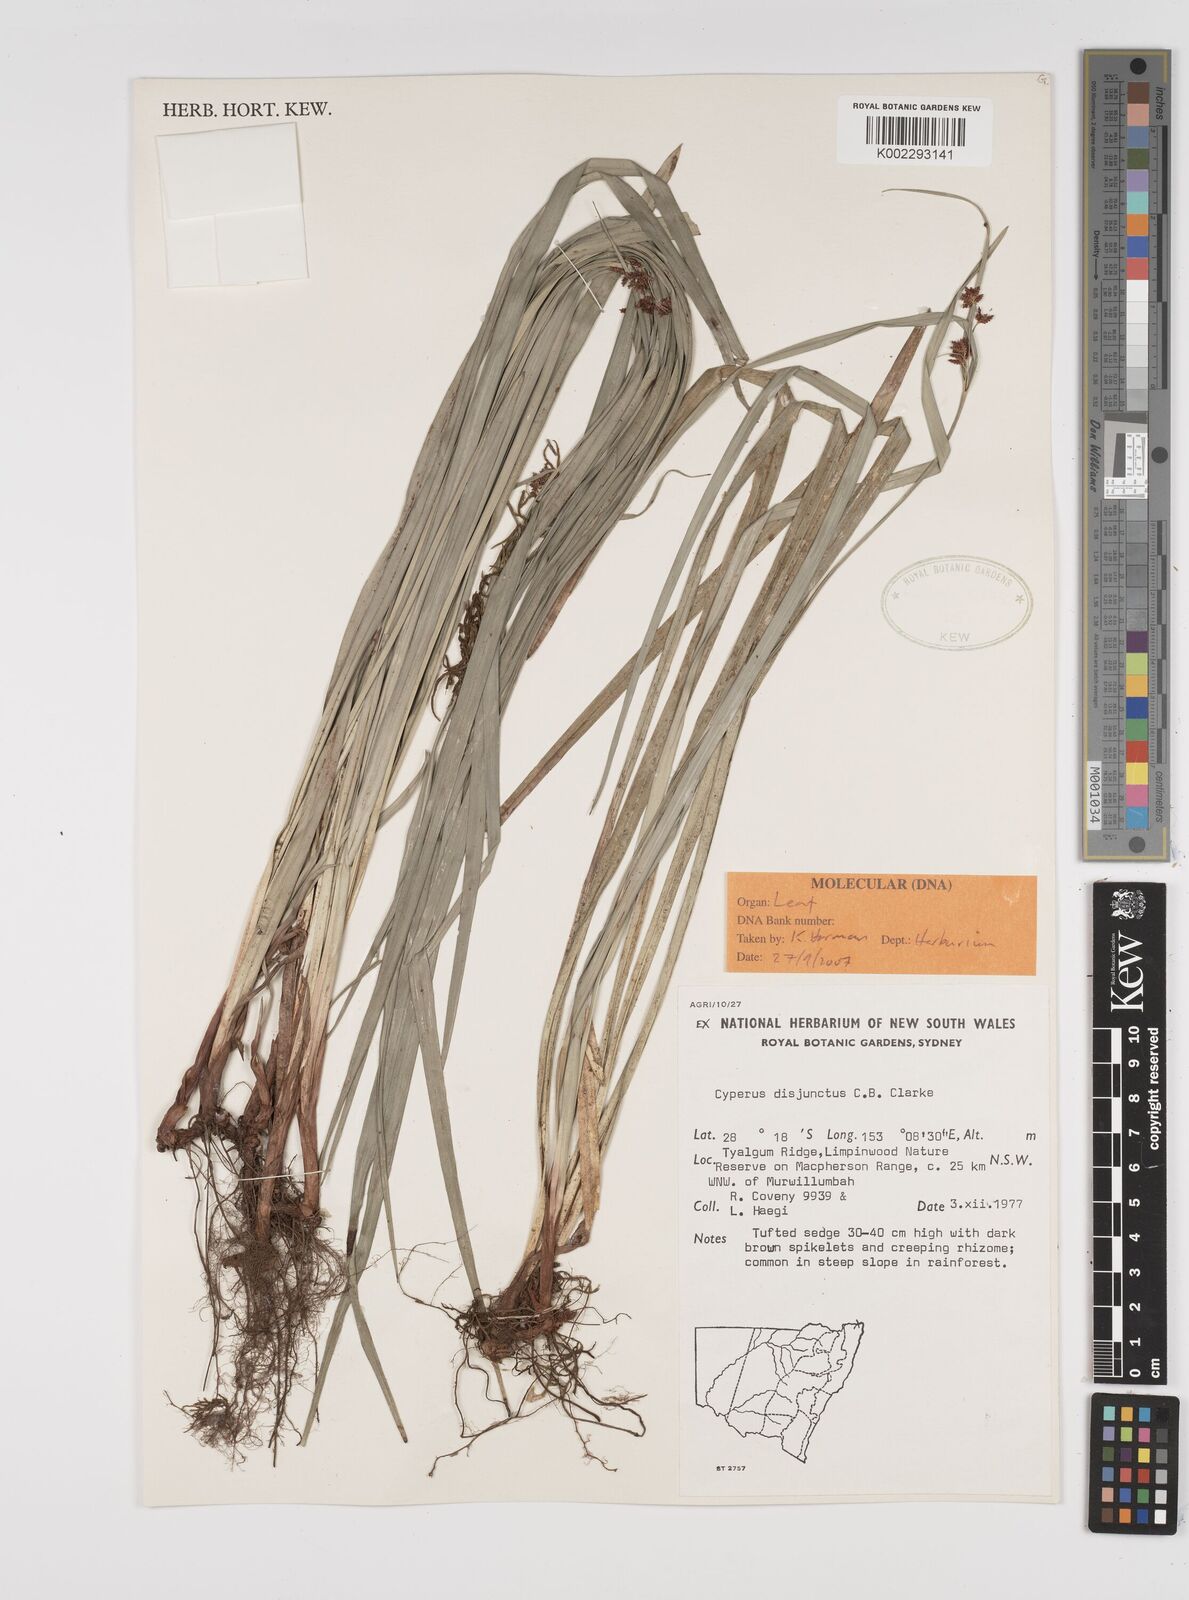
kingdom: Plantae
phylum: Tracheophyta
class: Liliopsida
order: Poales
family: Cyperaceae
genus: Cyperus
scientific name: Cyperus disjunctus
